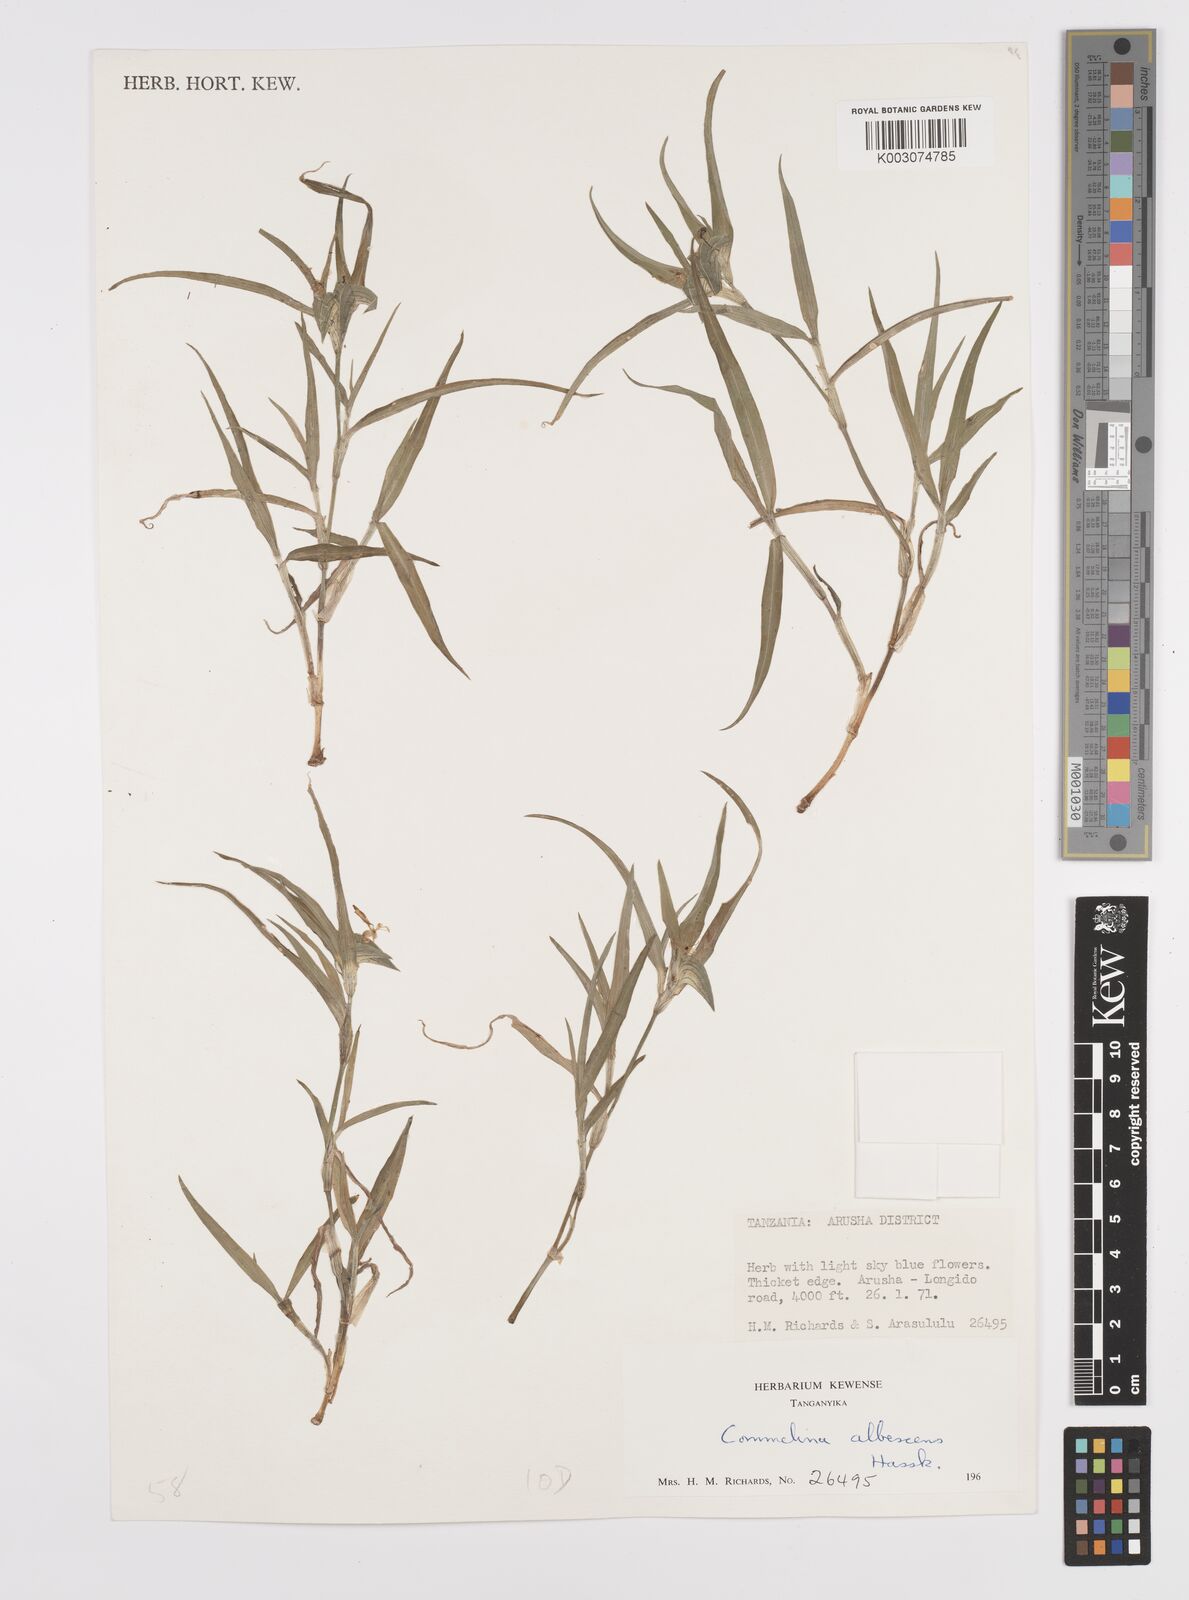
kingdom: Plantae
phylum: Tracheophyta
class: Liliopsida
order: Commelinales
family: Commelinaceae
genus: Commelina
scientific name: Commelina albescens
